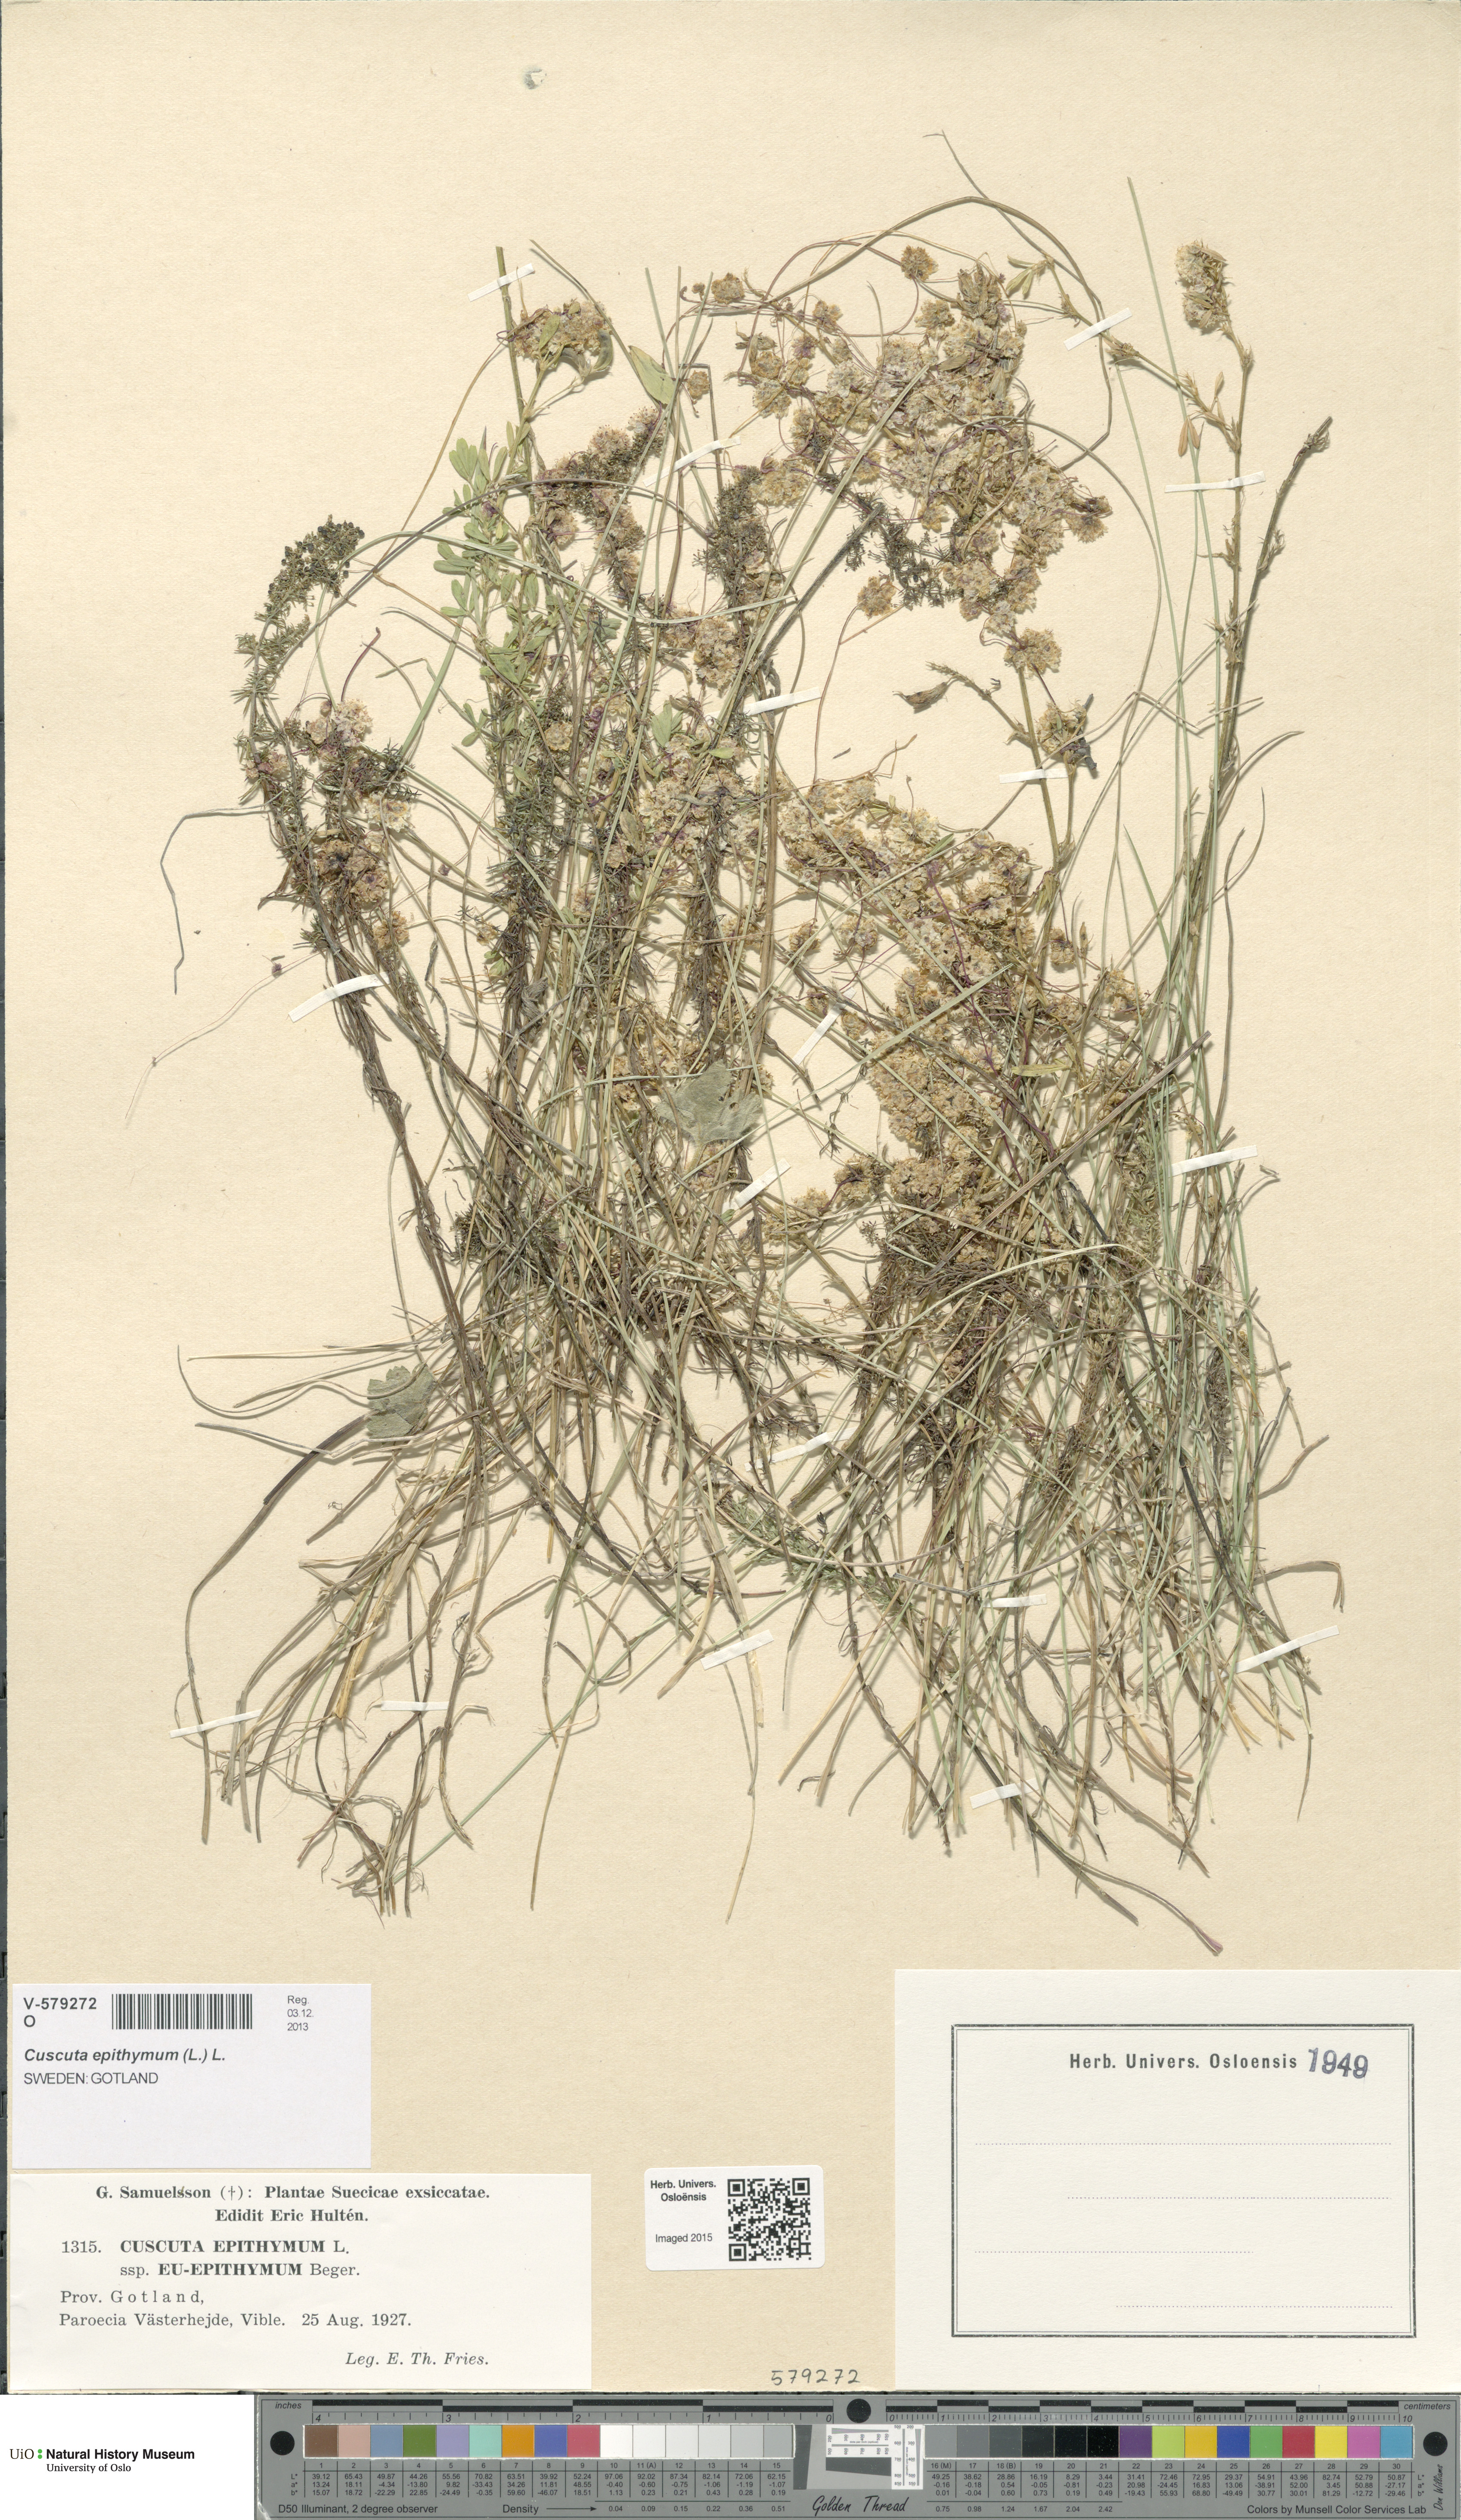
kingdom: Plantae
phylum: Tracheophyta
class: Magnoliopsida
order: Solanales
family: Convolvulaceae
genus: Cuscuta
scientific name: Cuscuta epithymum
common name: Clover dodder
